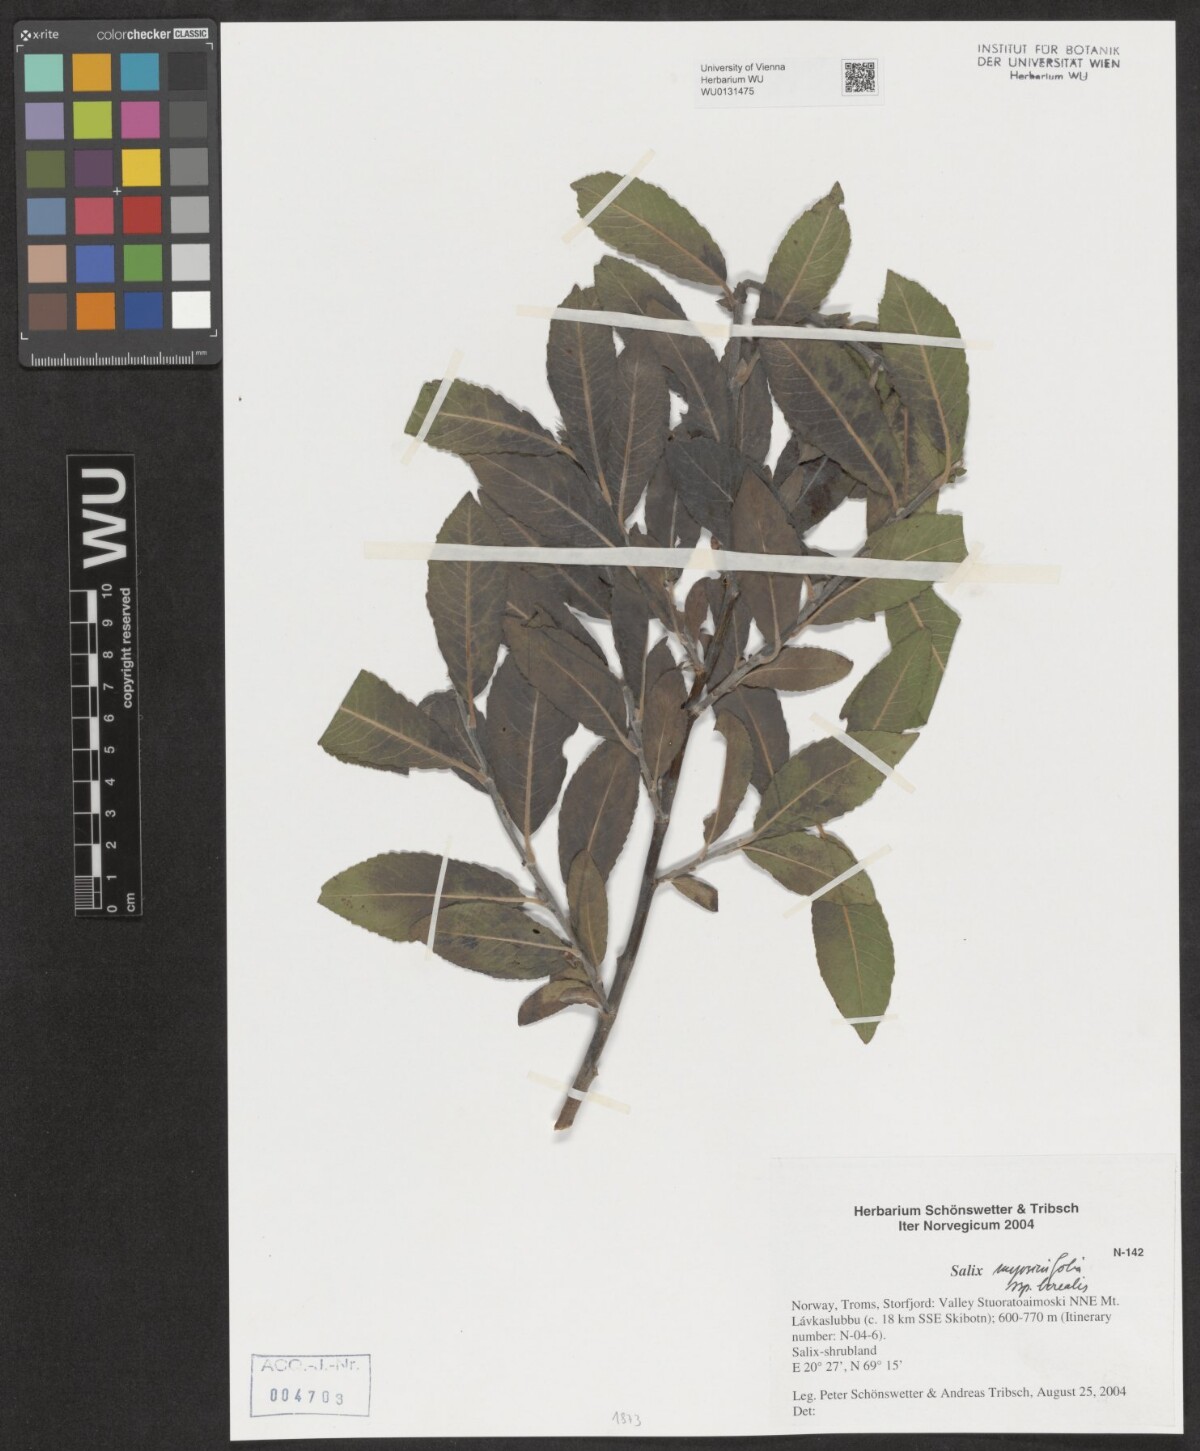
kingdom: Plantae
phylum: Tracheophyta
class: Magnoliopsida
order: Malpighiales
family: Salicaceae
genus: Salix
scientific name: Salix myrsinifolia
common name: Dark-leaved willow
